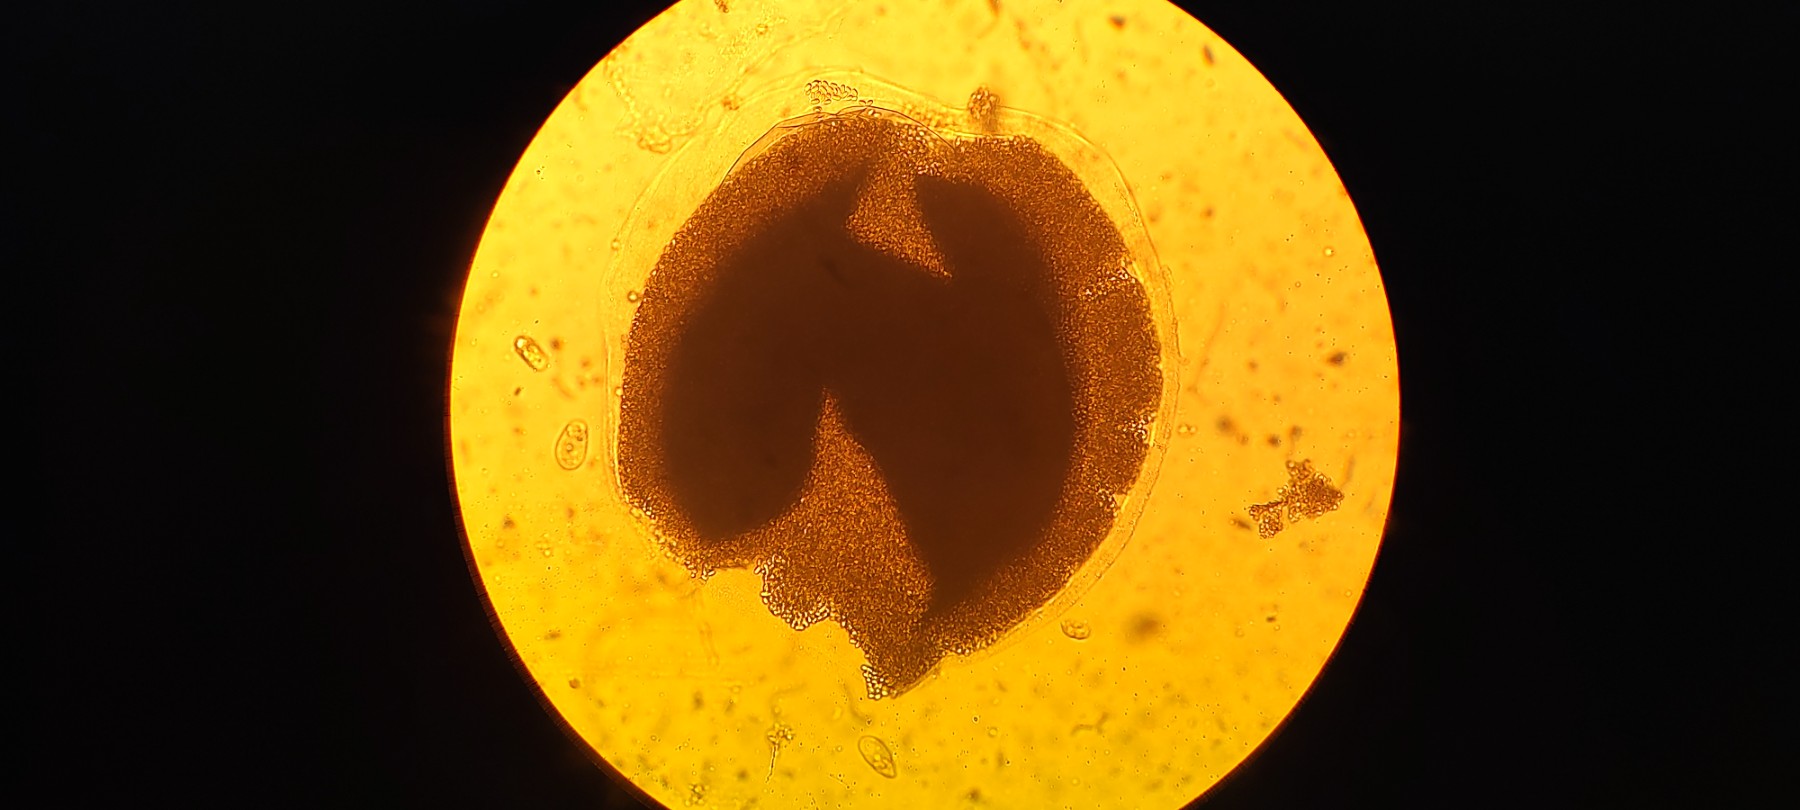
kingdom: Fungi
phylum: Mucoromycota
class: Mucoromycetes
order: Mucorales
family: Pilobolaceae
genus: Pilobolus
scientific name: Pilobolus crystallinus
